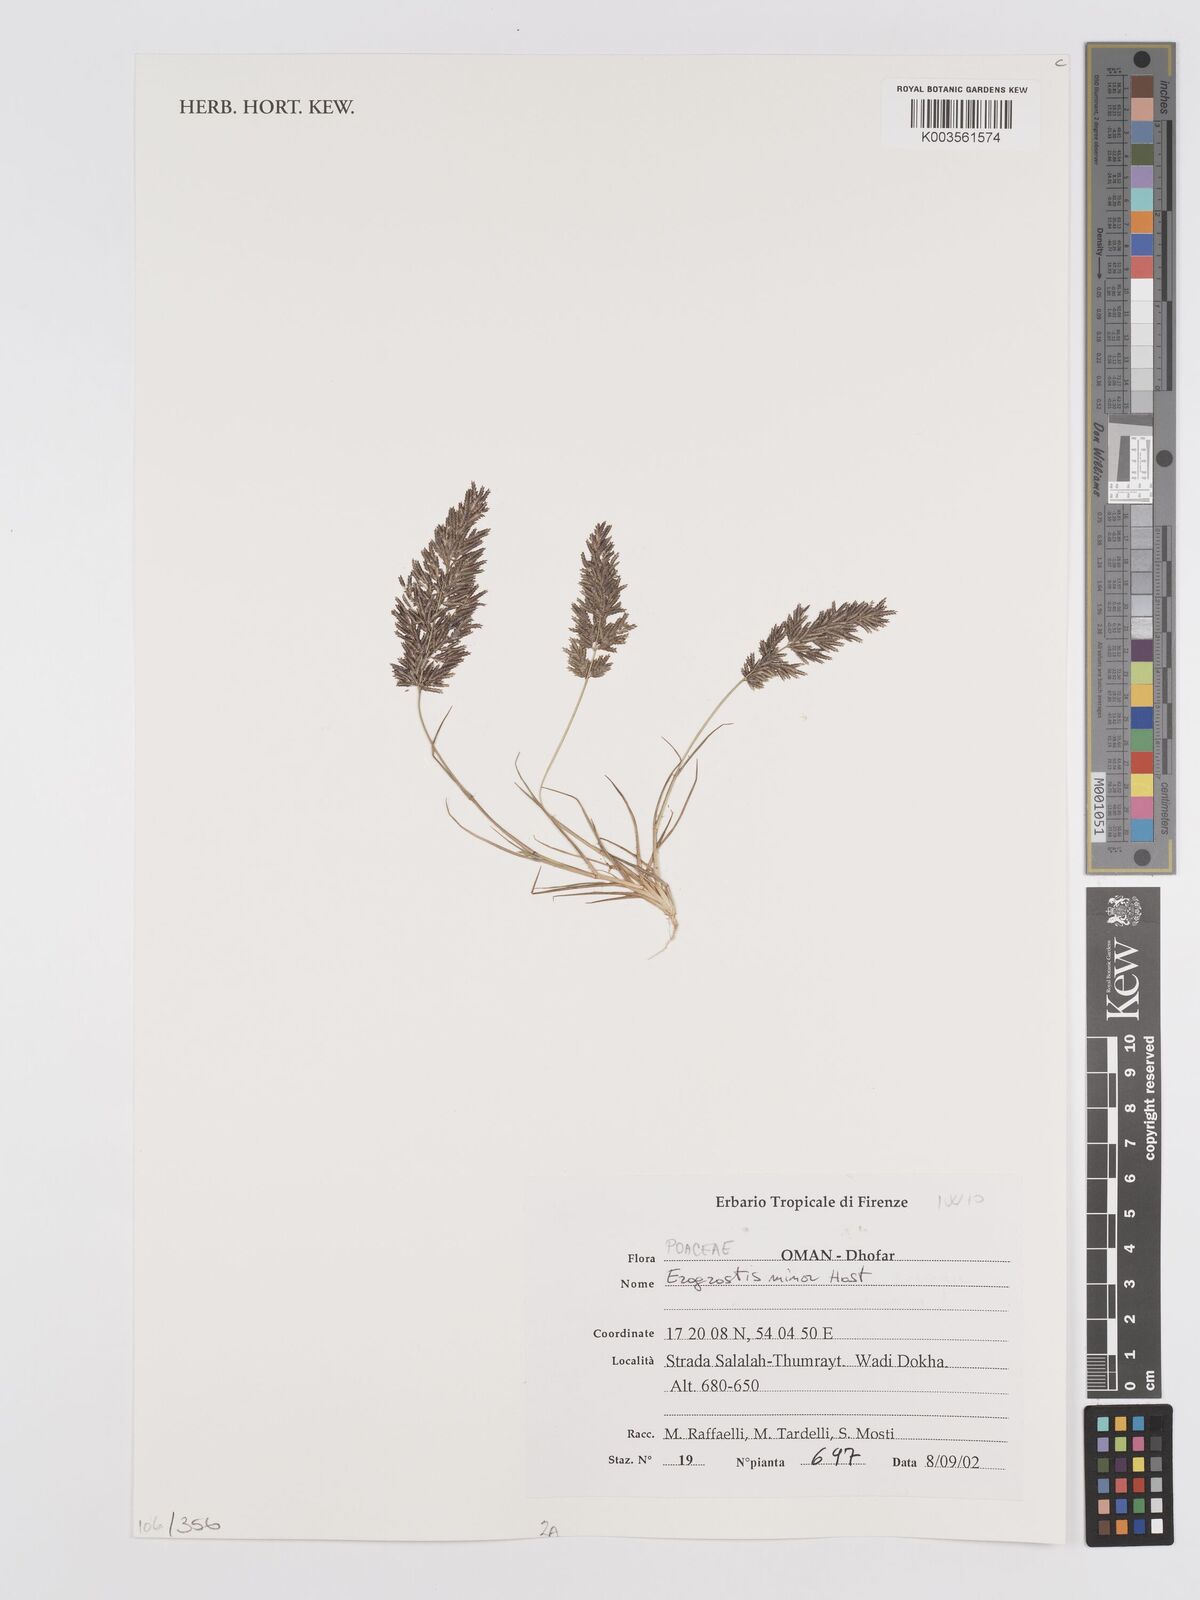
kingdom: Plantae
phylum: Tracheophyta
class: Liliopsida
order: Poales
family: Poaceae
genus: Eragrostis
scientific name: Eragrostis minor
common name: Small love-grass
